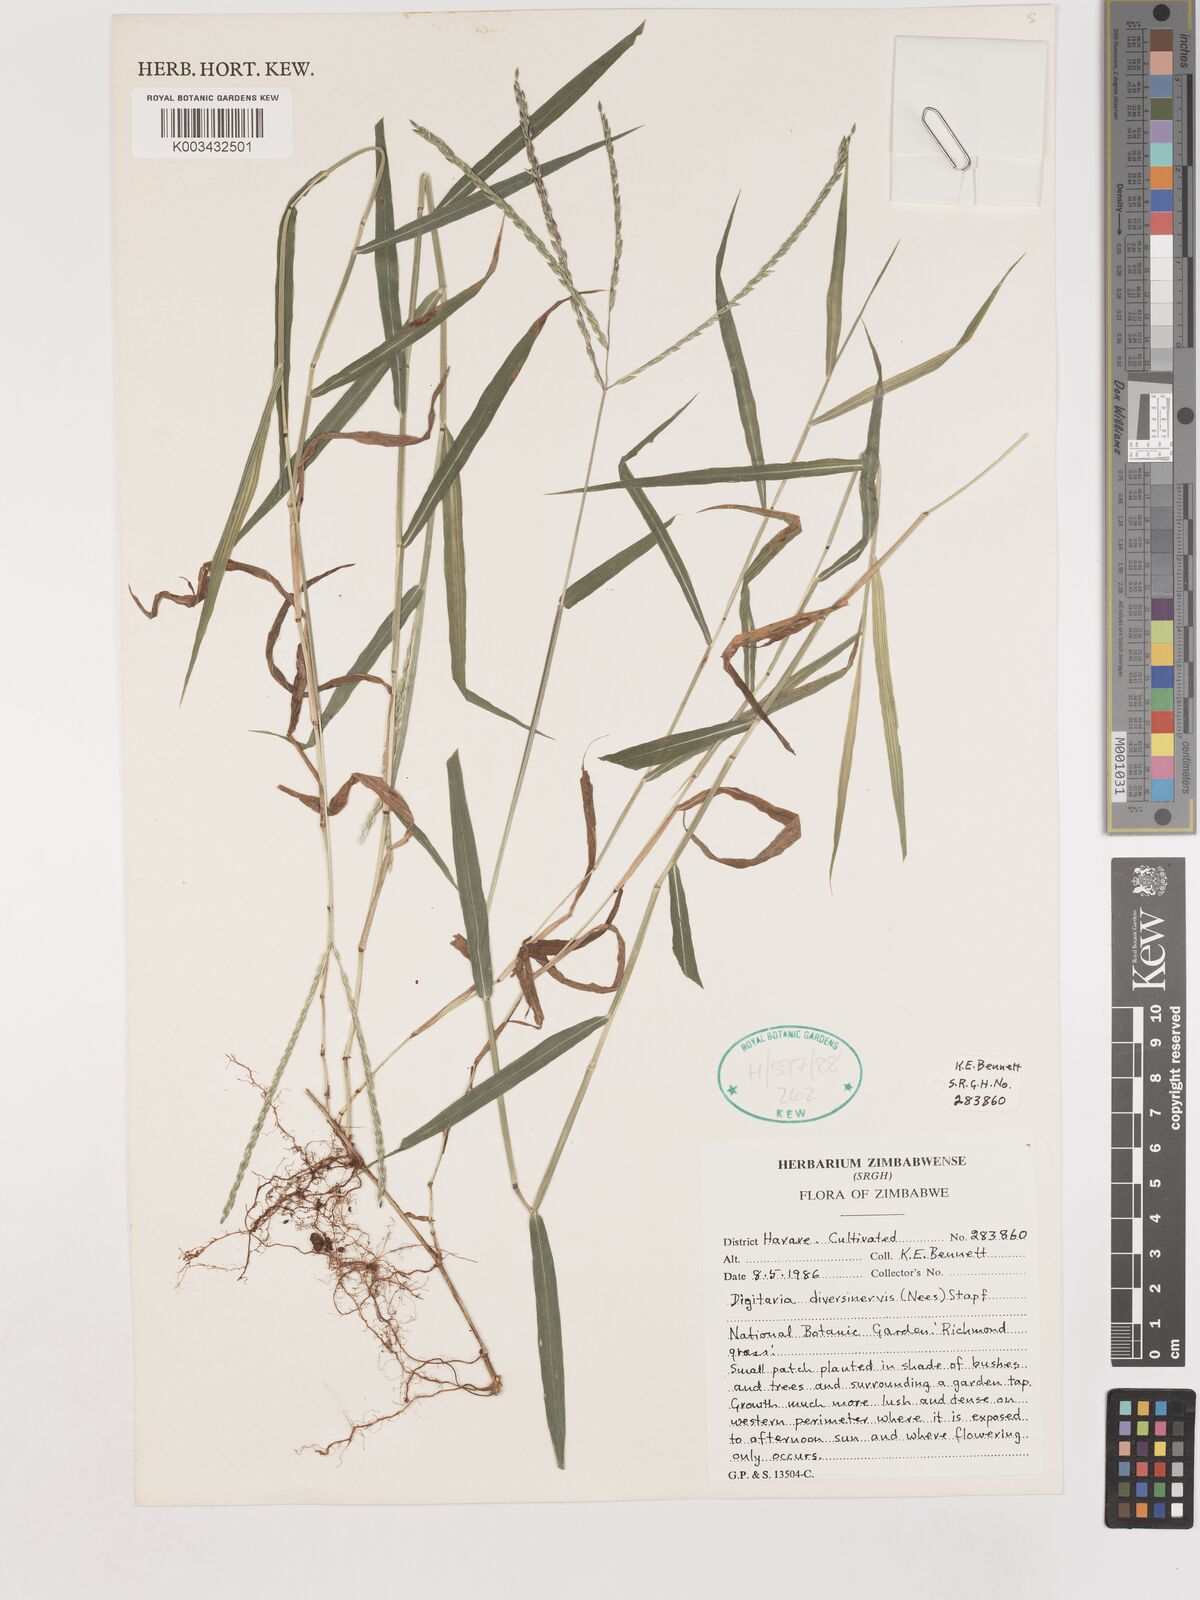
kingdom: Plantae
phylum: Tracheophyta
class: Liliopsida
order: Poales
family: Poaceae
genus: Digitaria
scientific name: Digitaria diversinervis
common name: Richmond finger grass
